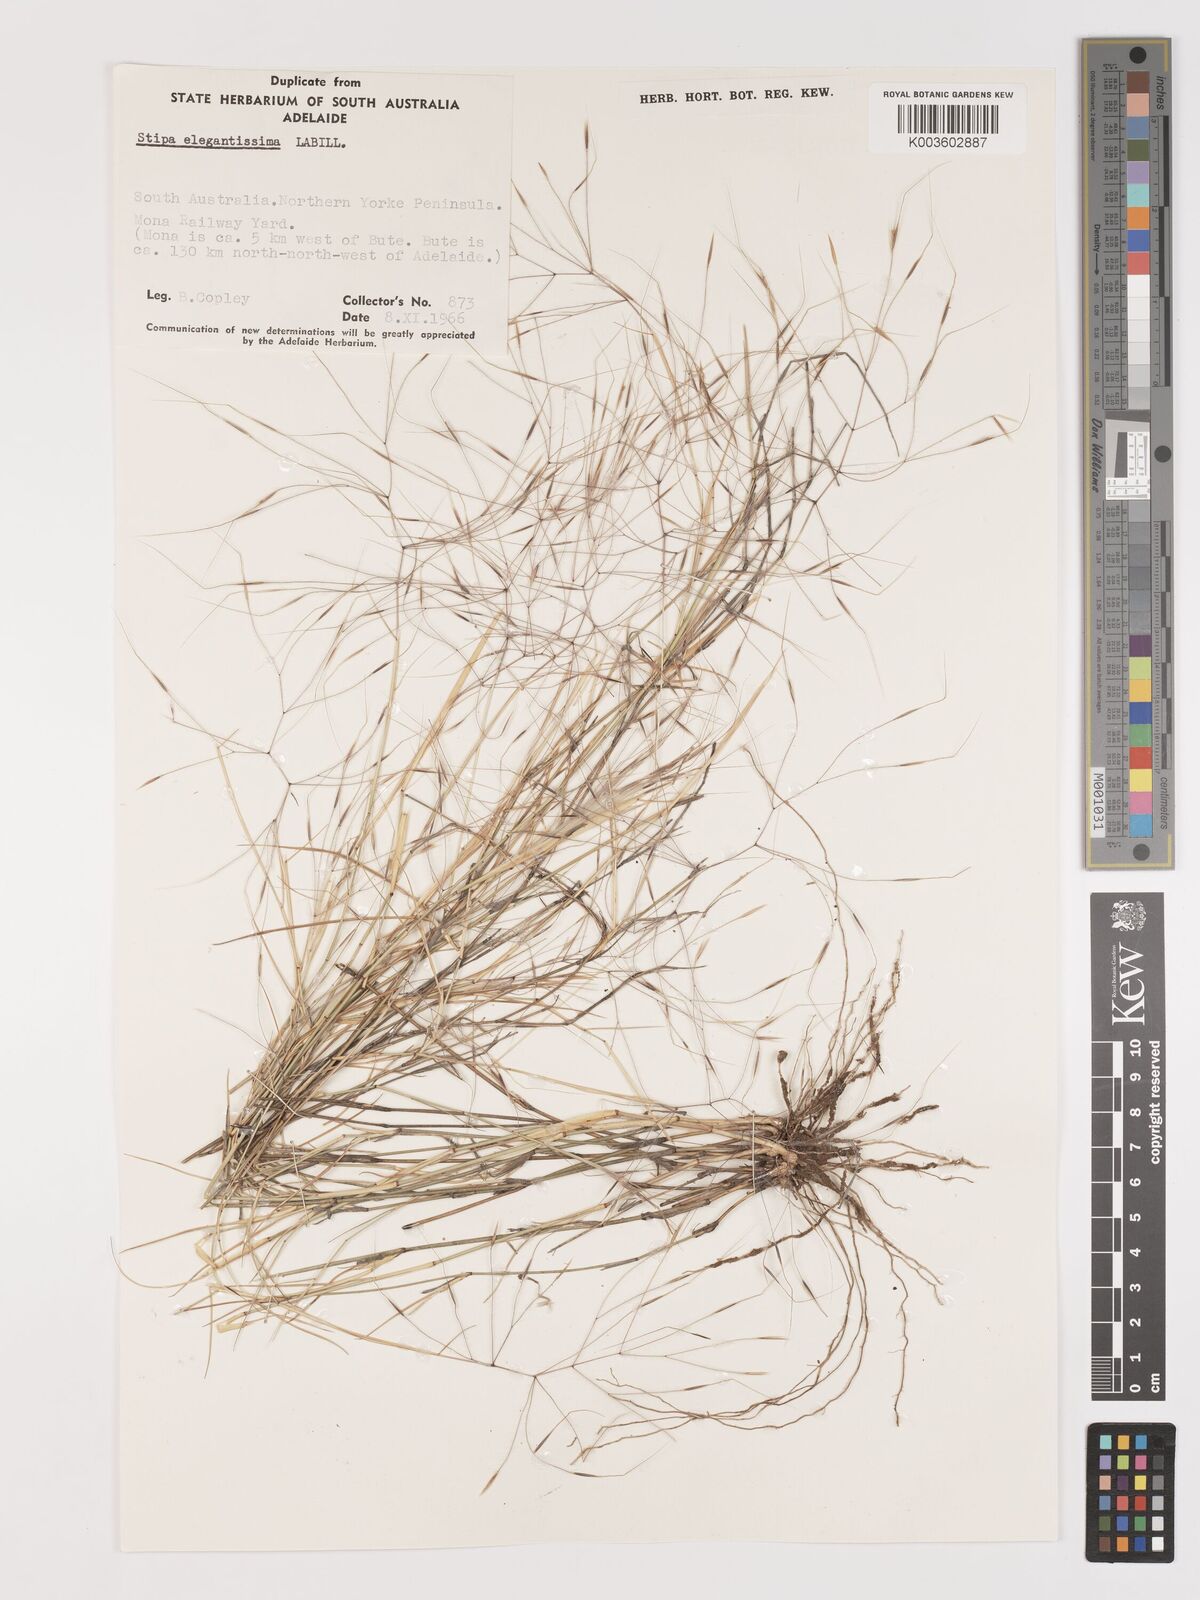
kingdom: Plantae
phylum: Tracheophyta
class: Liliopsida
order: Poales
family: Poaceae
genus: Austrostipa
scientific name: Austrostipa elegantissima
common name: Feather spear grass
